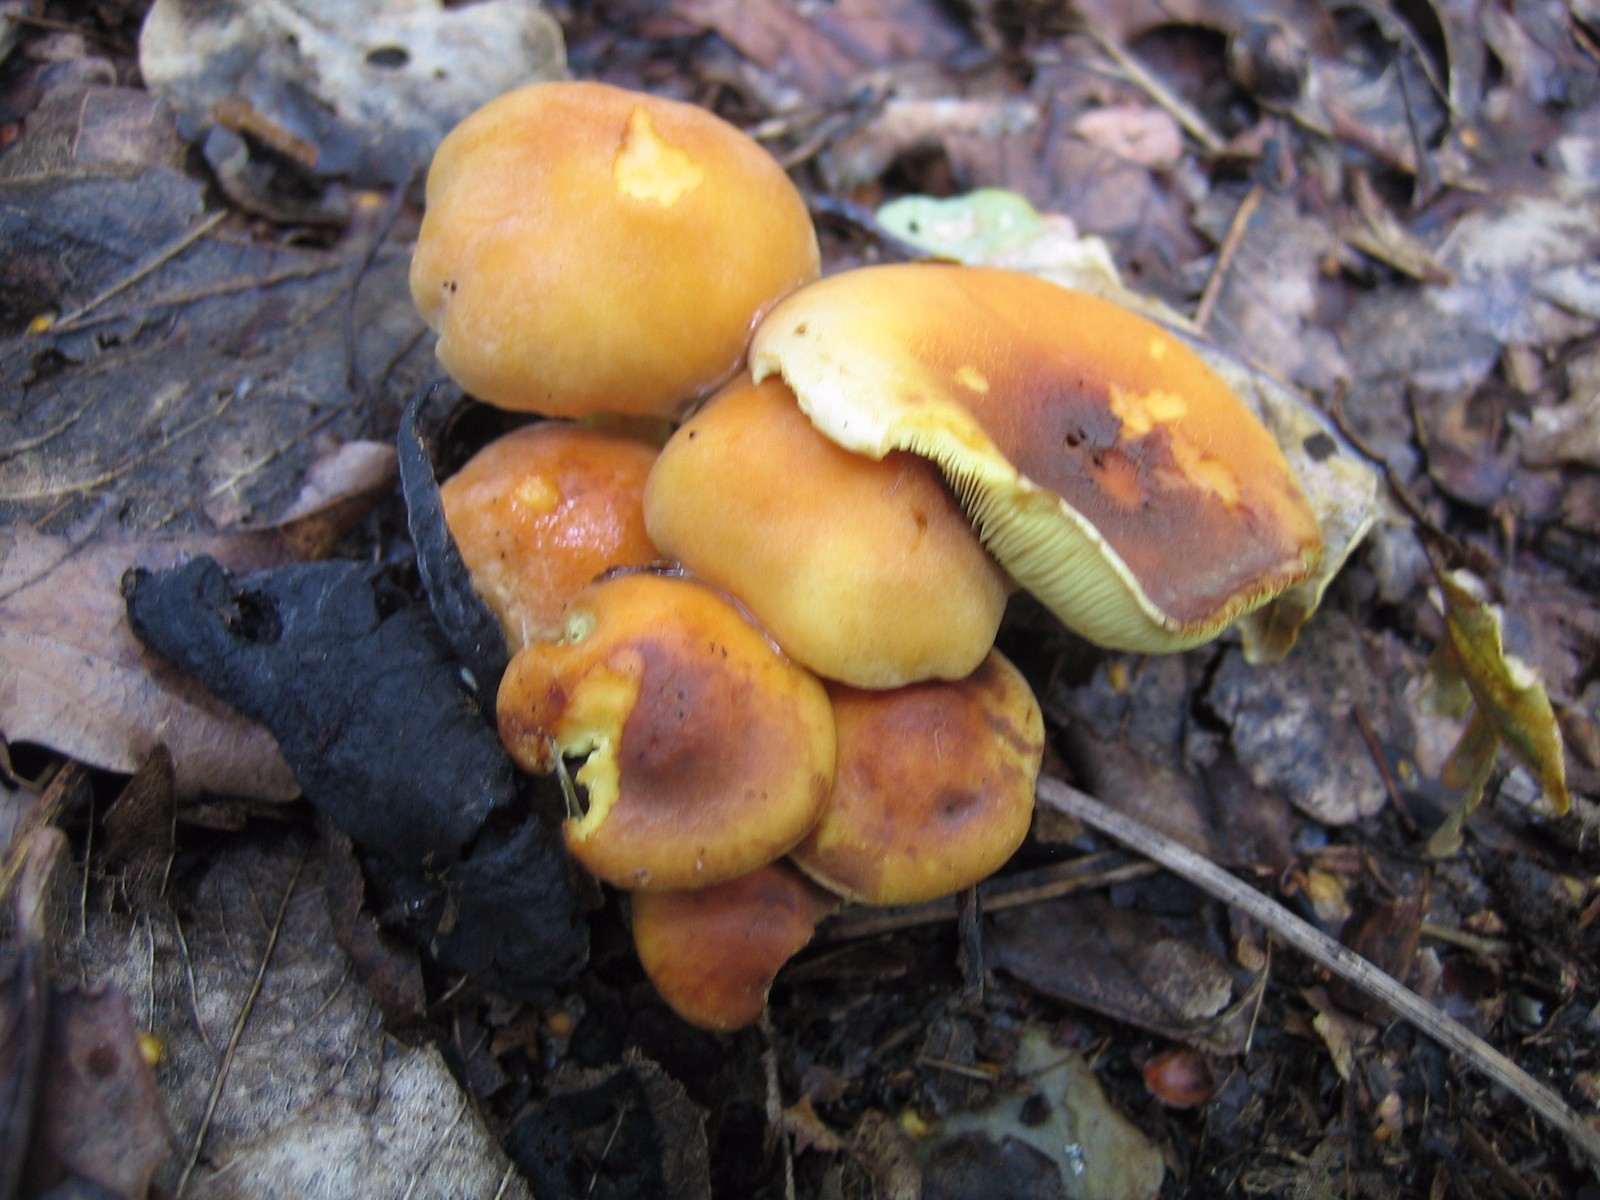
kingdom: Fungi
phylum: Basidiomycota
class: Agaricomycetes
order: Agaricales
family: Strophariaceae
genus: Hypholoma
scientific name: Hypholoma fasciculare
